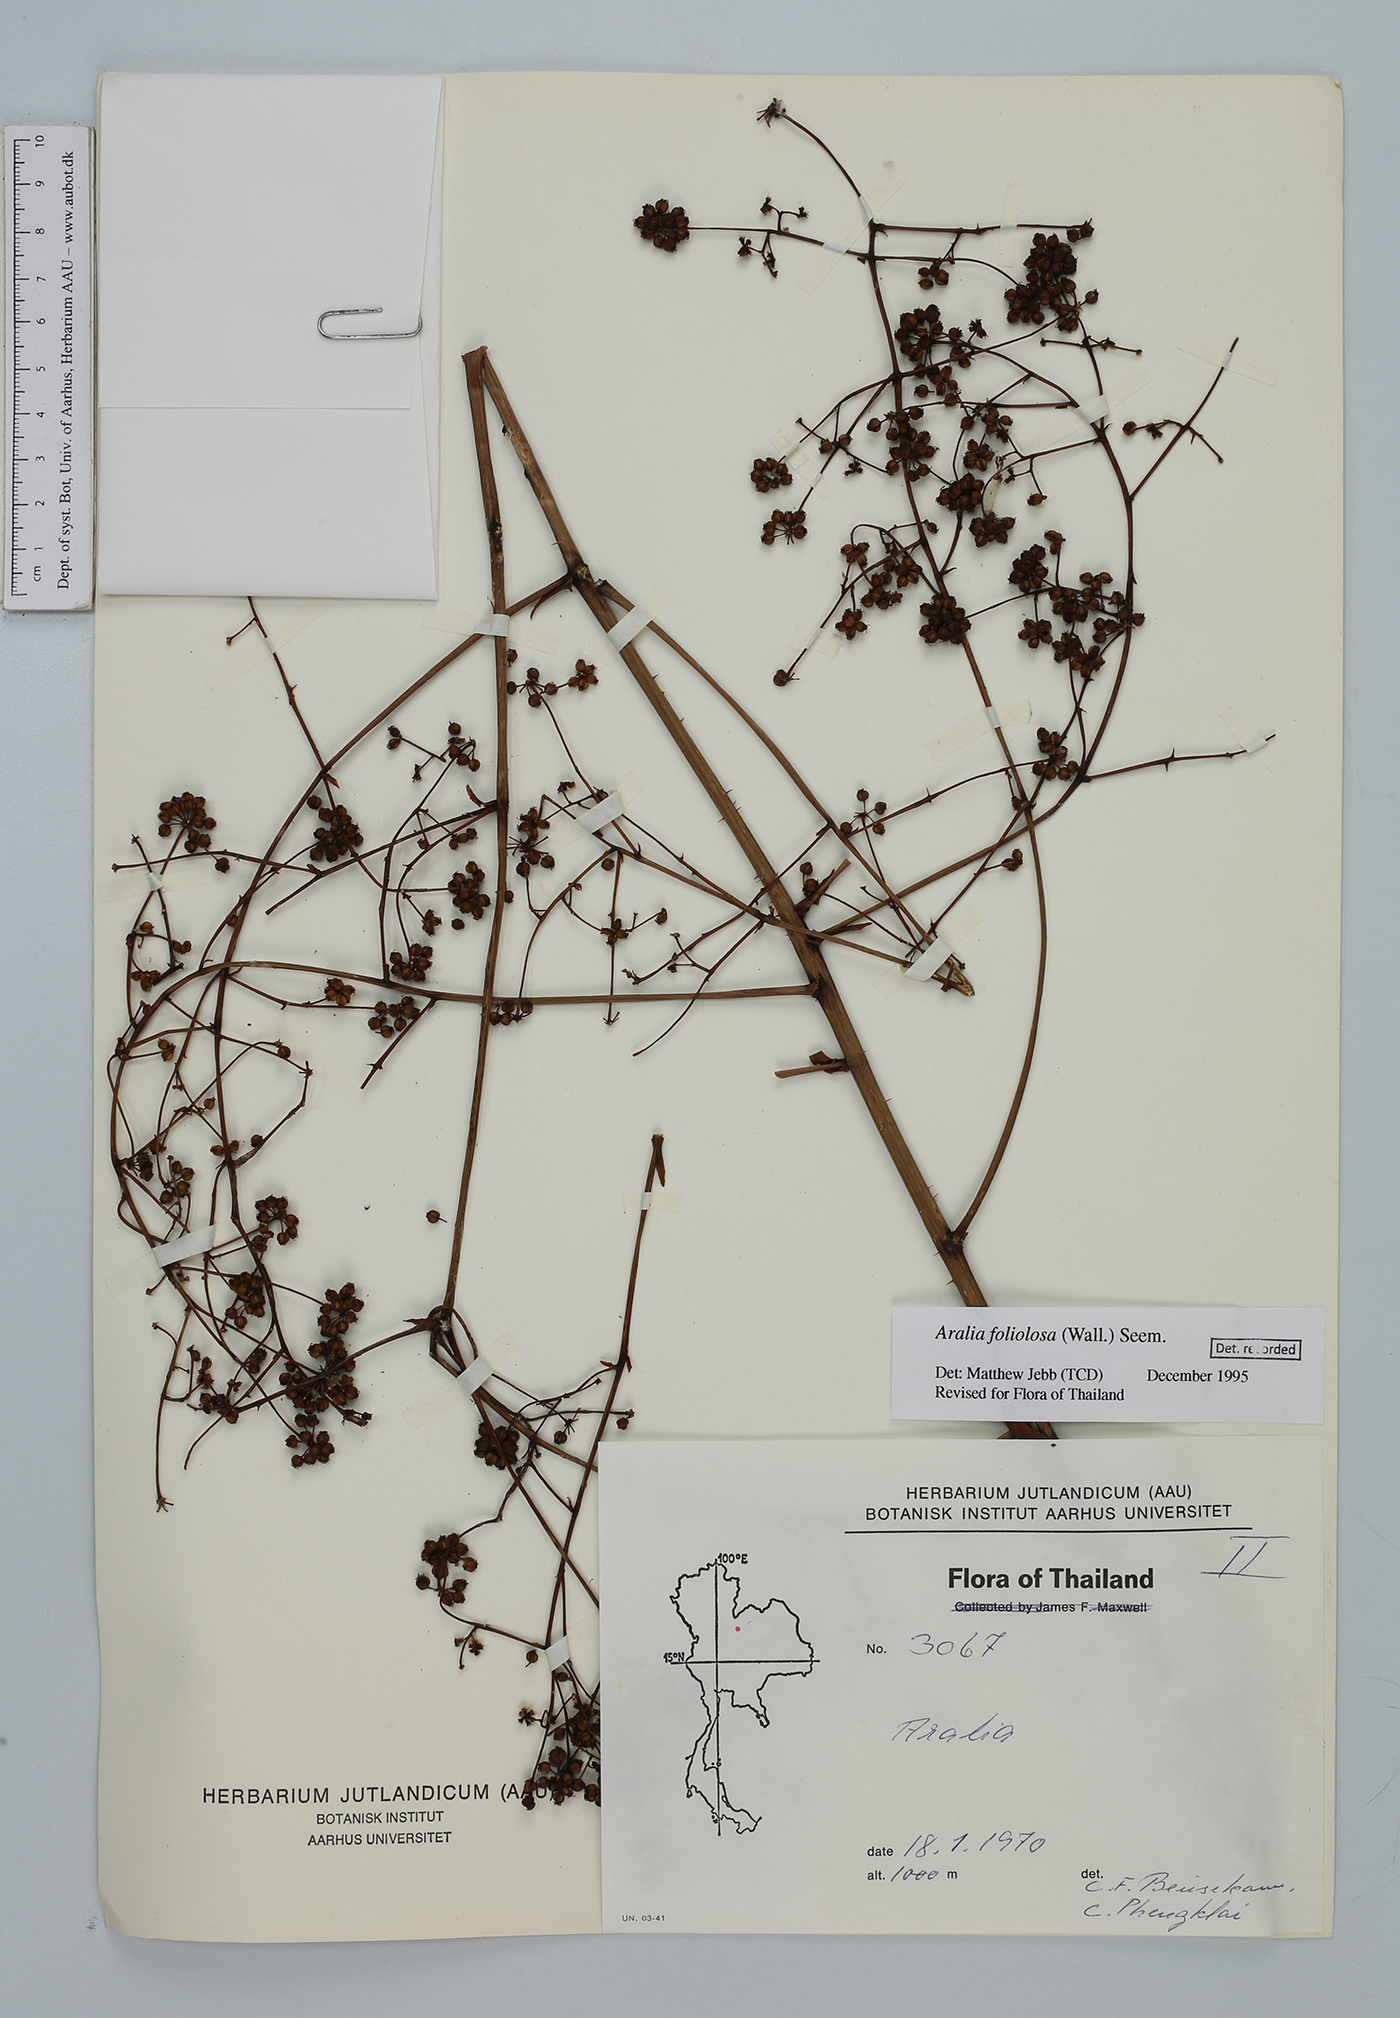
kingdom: Plantae
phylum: Tracheophyta
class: Magnoliopsida
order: Apiales
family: Araliaceae
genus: Aralia
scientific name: Aralia foliolosa
